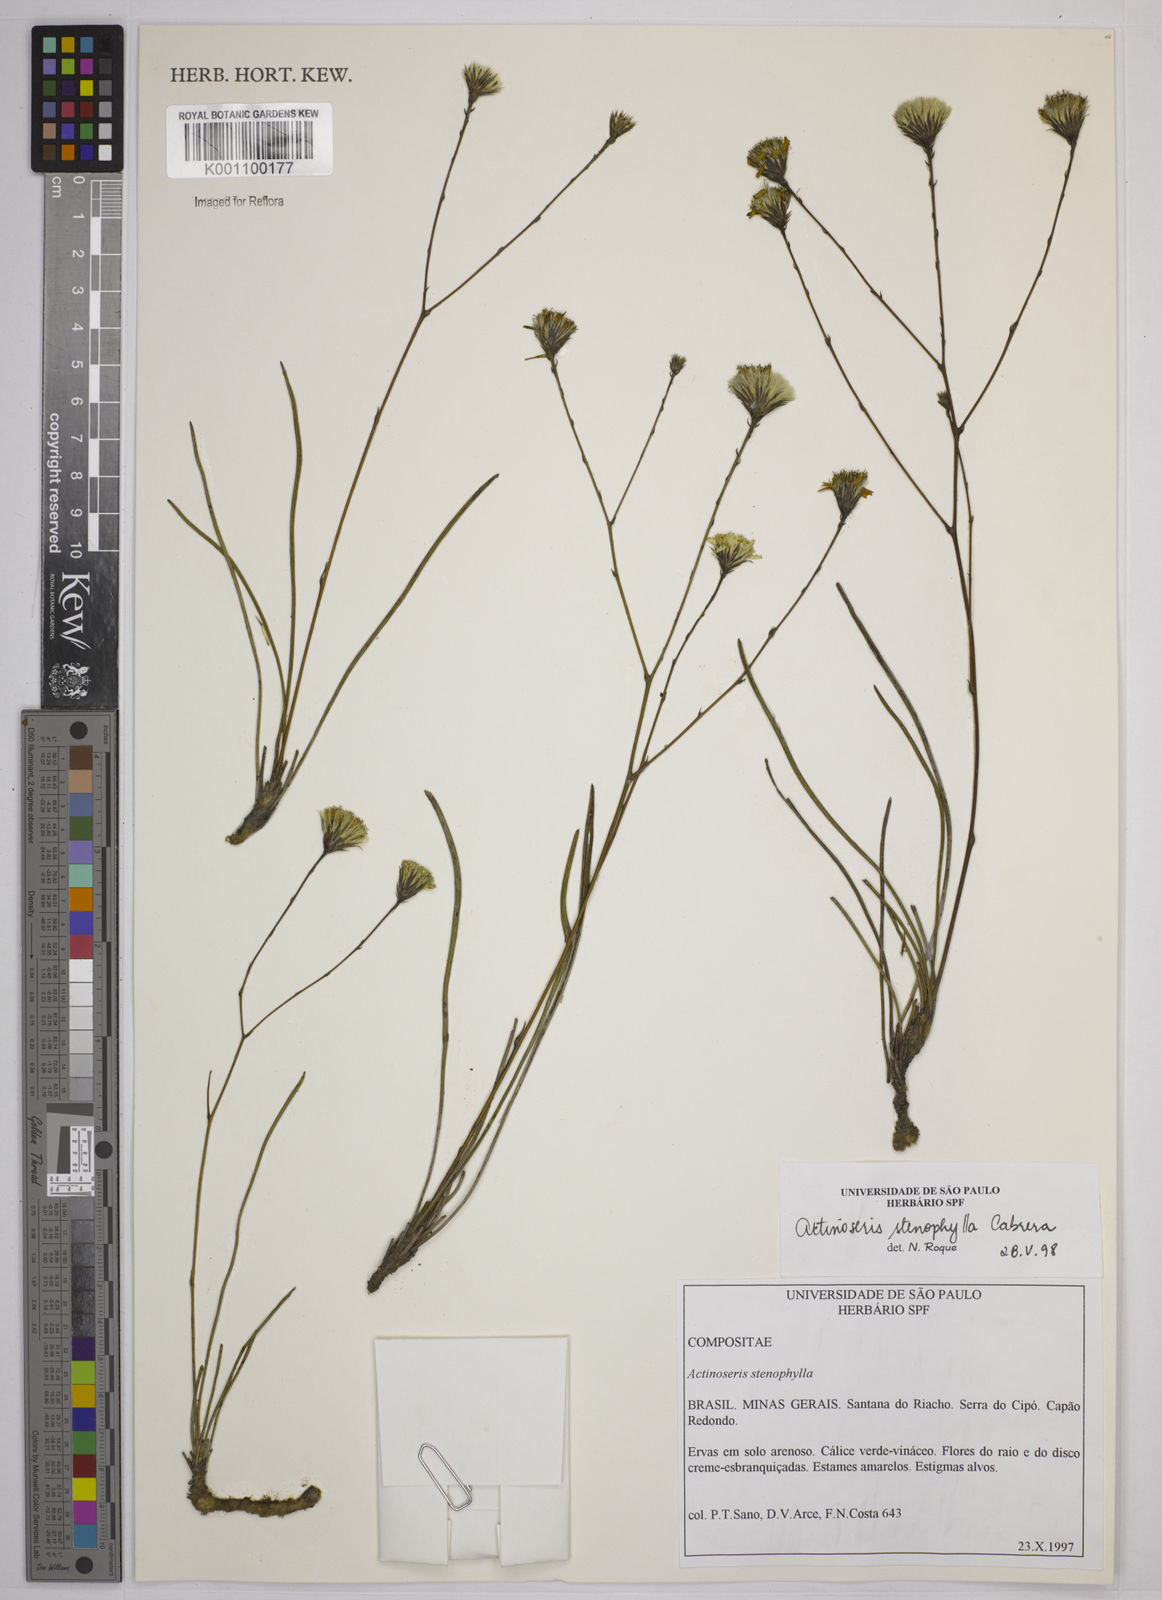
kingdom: Plantae
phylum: Tracheophyta
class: Magnoliopsida
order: Asterales
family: Asteraceae
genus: Richterago
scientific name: Richterago stenophylla
